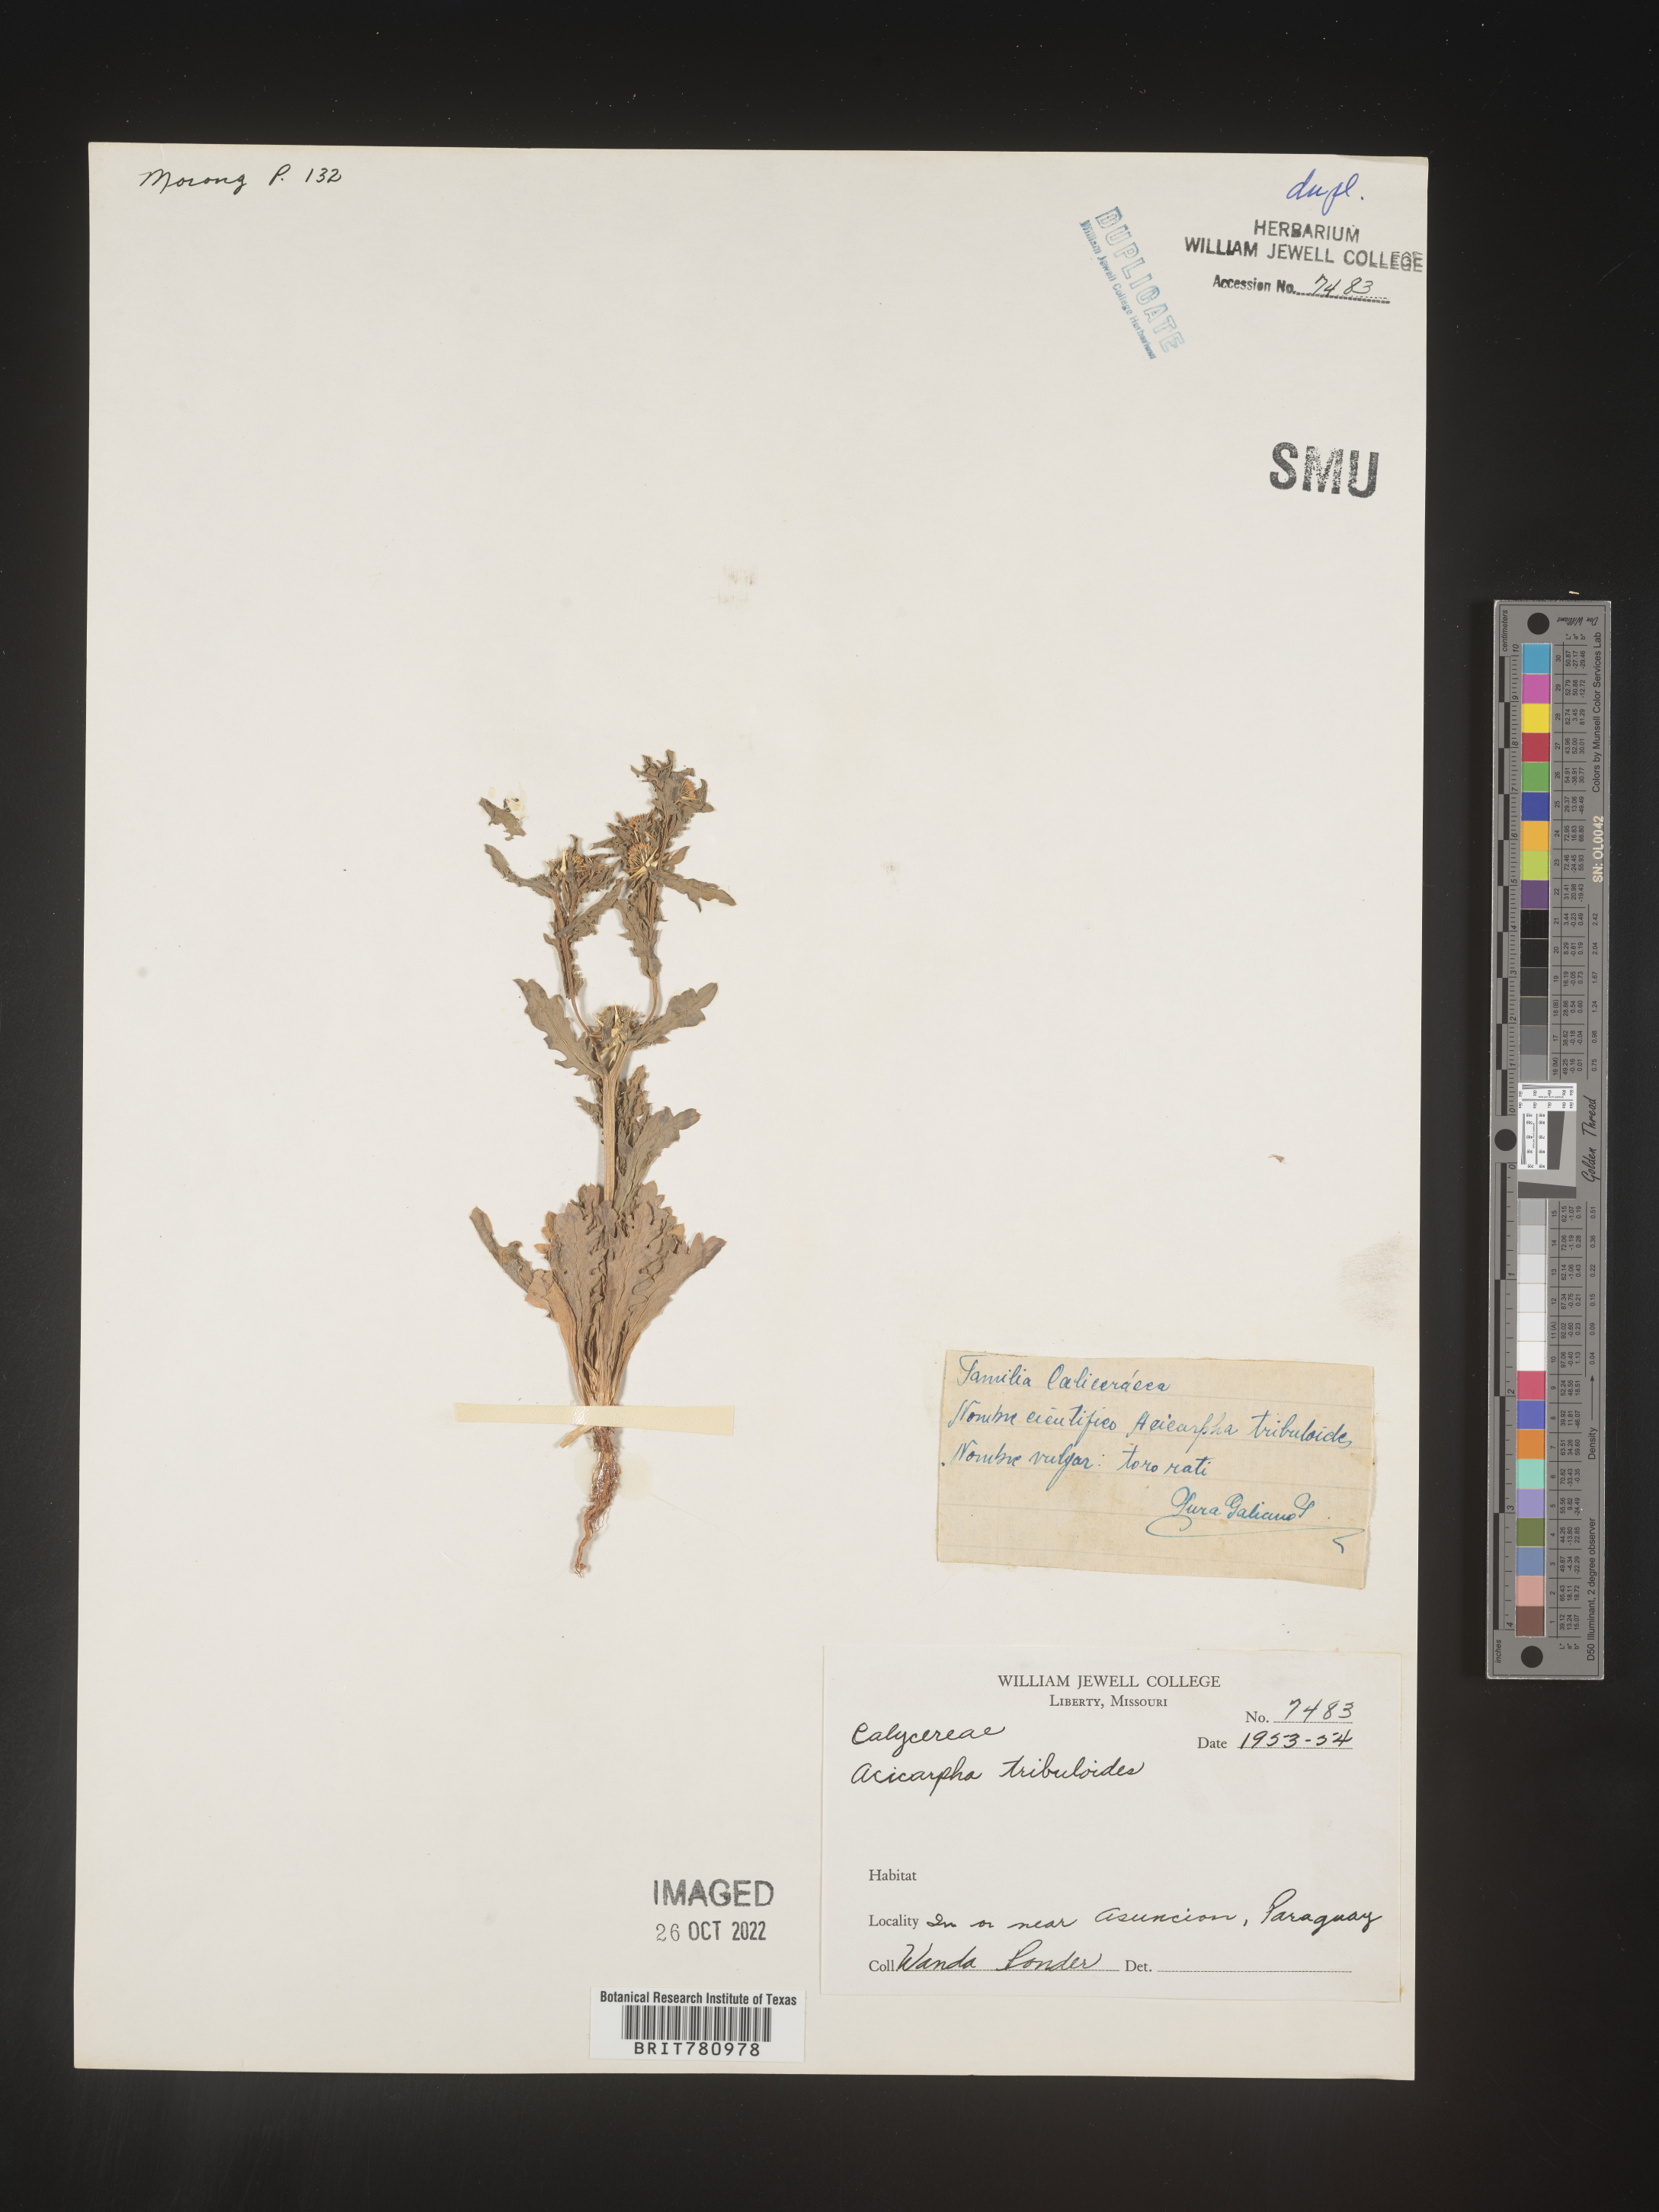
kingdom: Plantae
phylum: Tracheophyta
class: Magnoliopsida
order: Asterales
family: Calyceraceae
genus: Acicarpha
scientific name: Acicarpha
